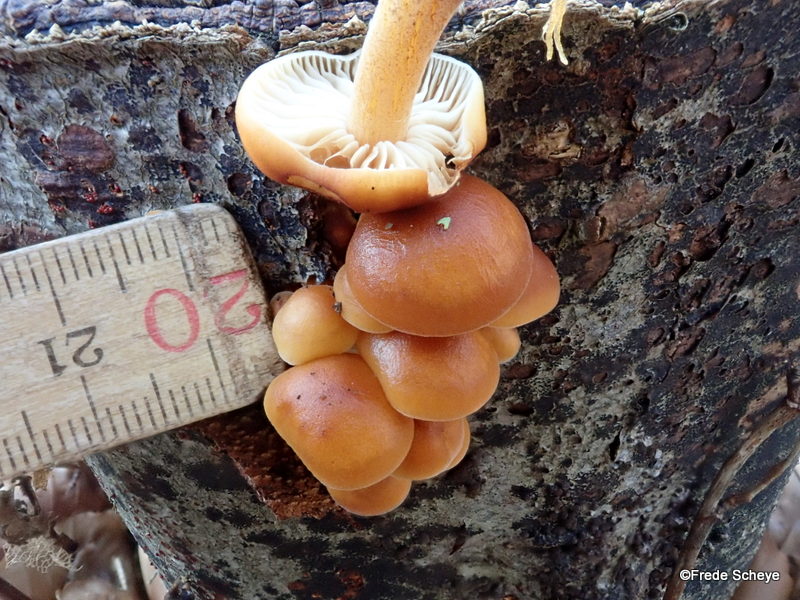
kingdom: Fungi
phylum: Basidiomycota
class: Agaricomycetes
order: Agaricales
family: Physalacriaceae
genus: Flammulina
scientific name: Flammulina velutipes
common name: gul fløjlsfod
